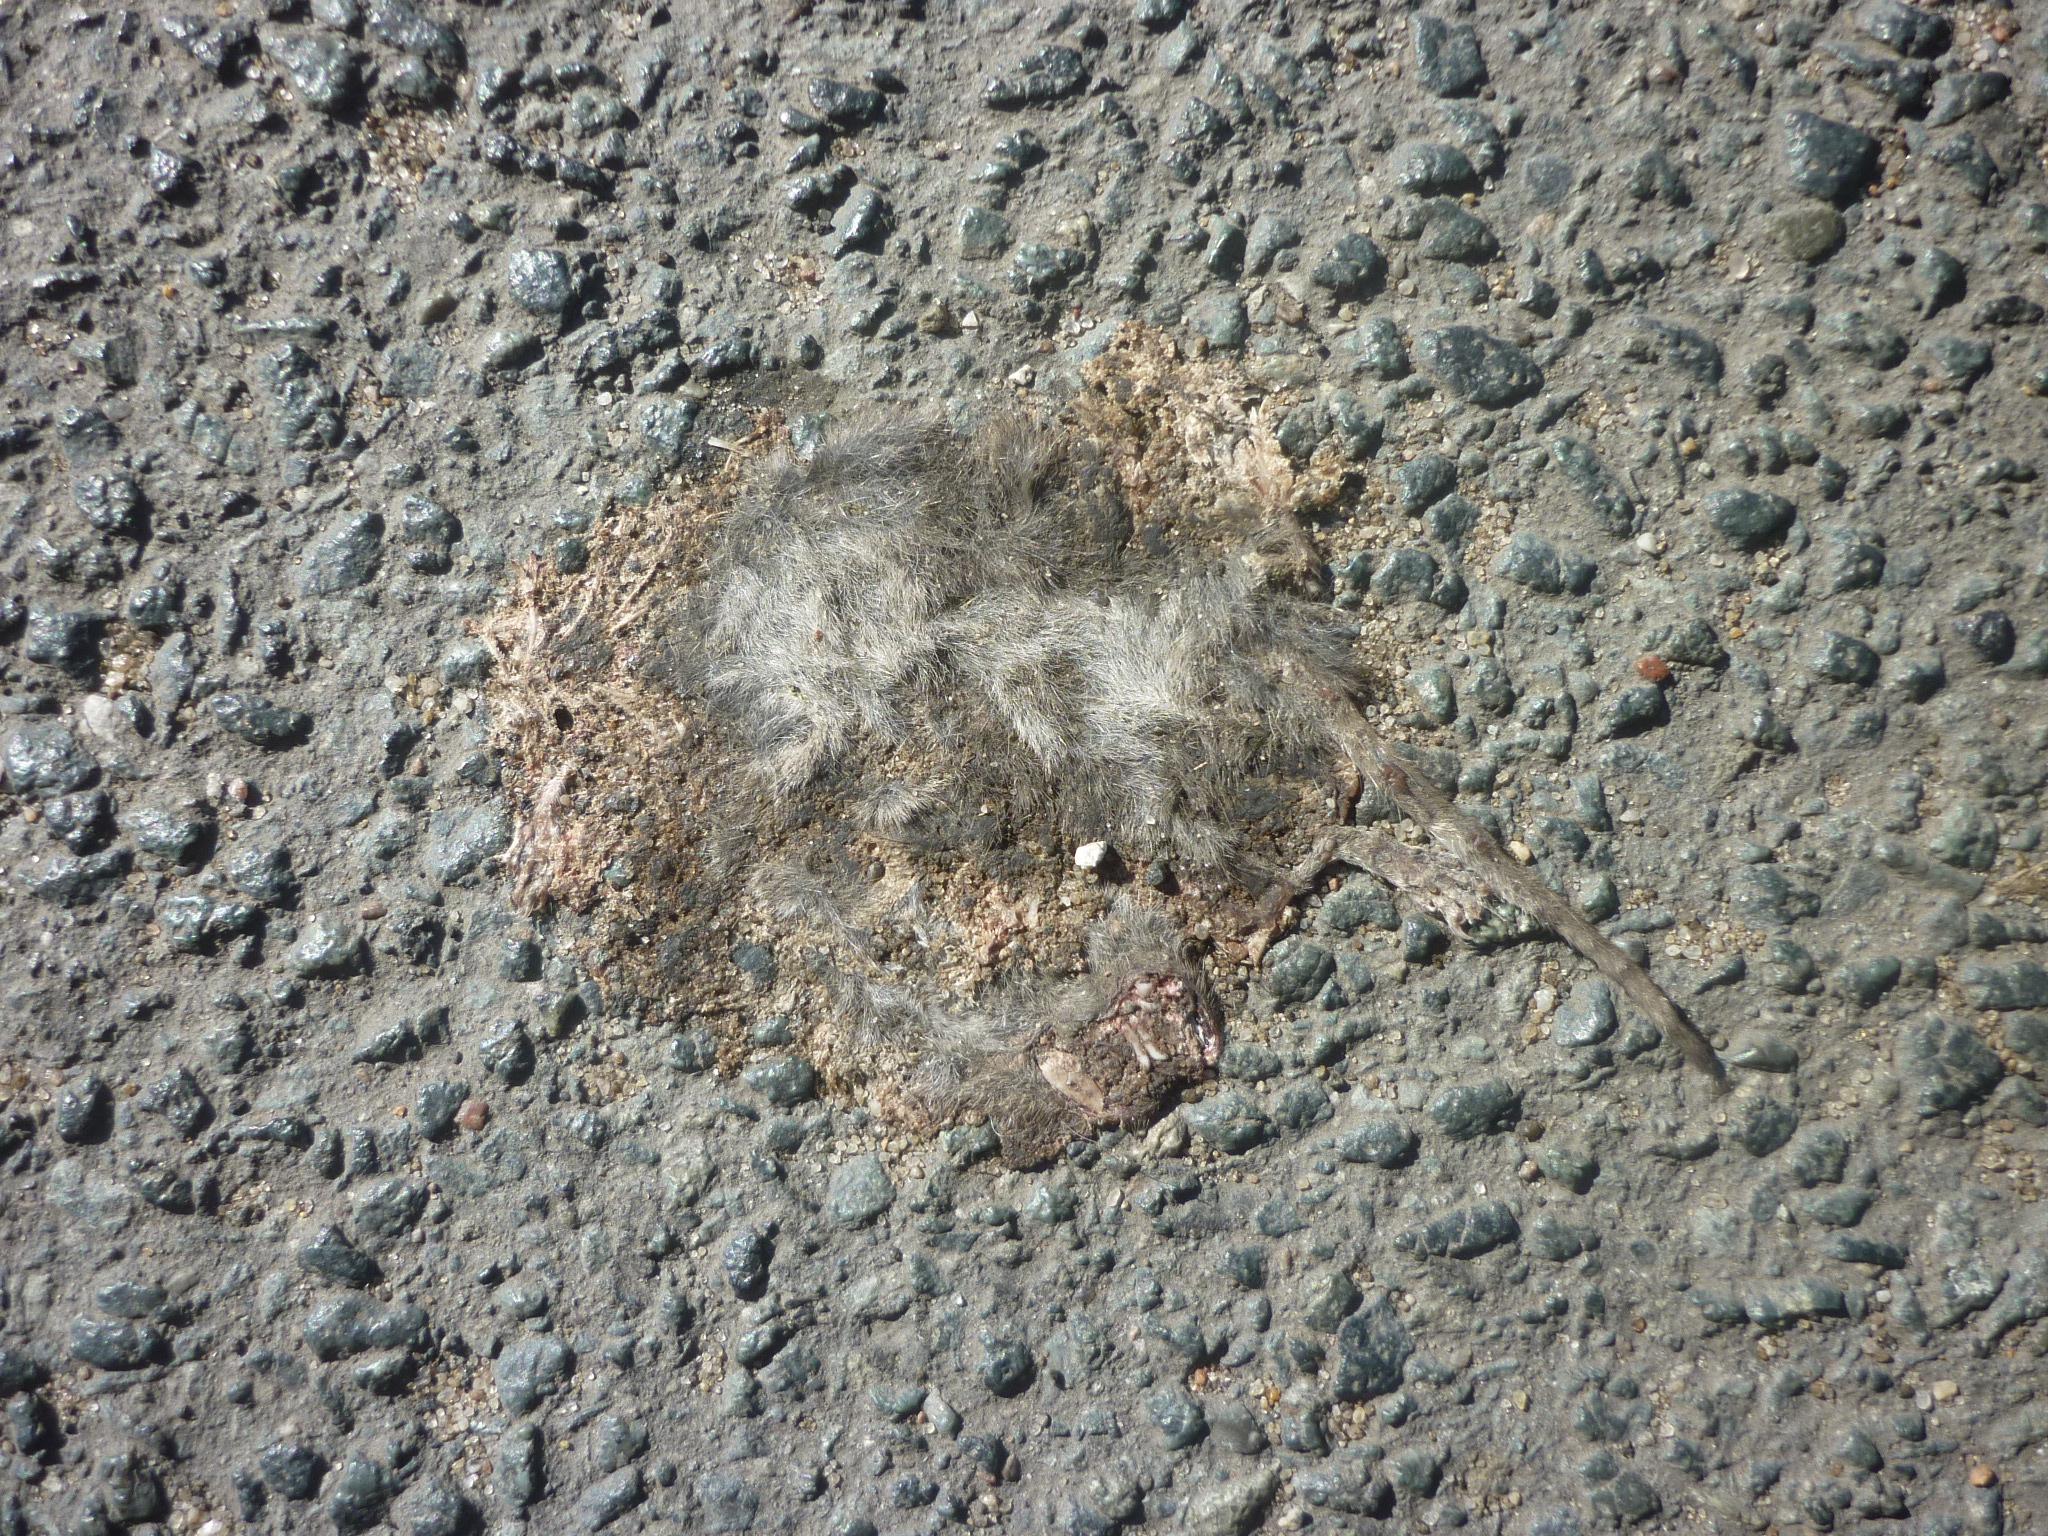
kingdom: Animalia
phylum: Chordata
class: Mammalia
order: Rodentia
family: Muridae
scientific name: Muridae
